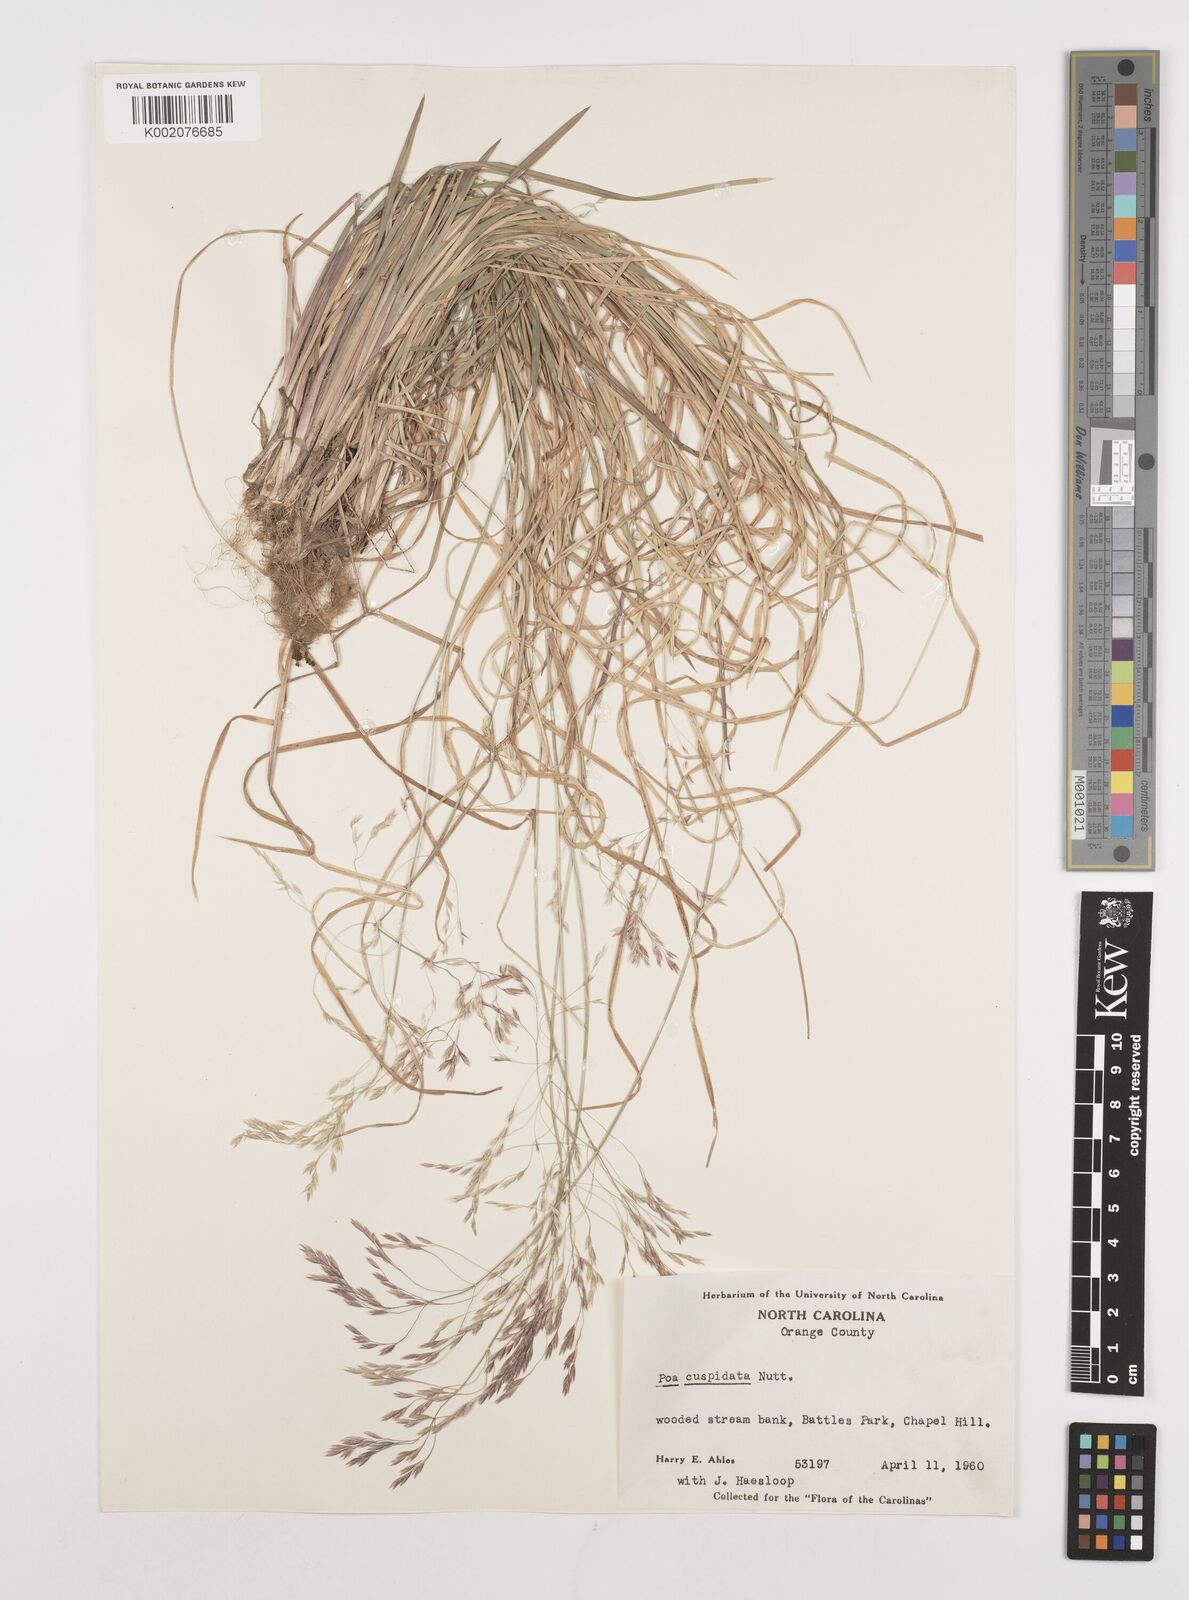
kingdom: Plantae
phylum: Tracheophyta
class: Liliopsida
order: Poales
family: Poaceae
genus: Poa
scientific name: Poa cuspidata
